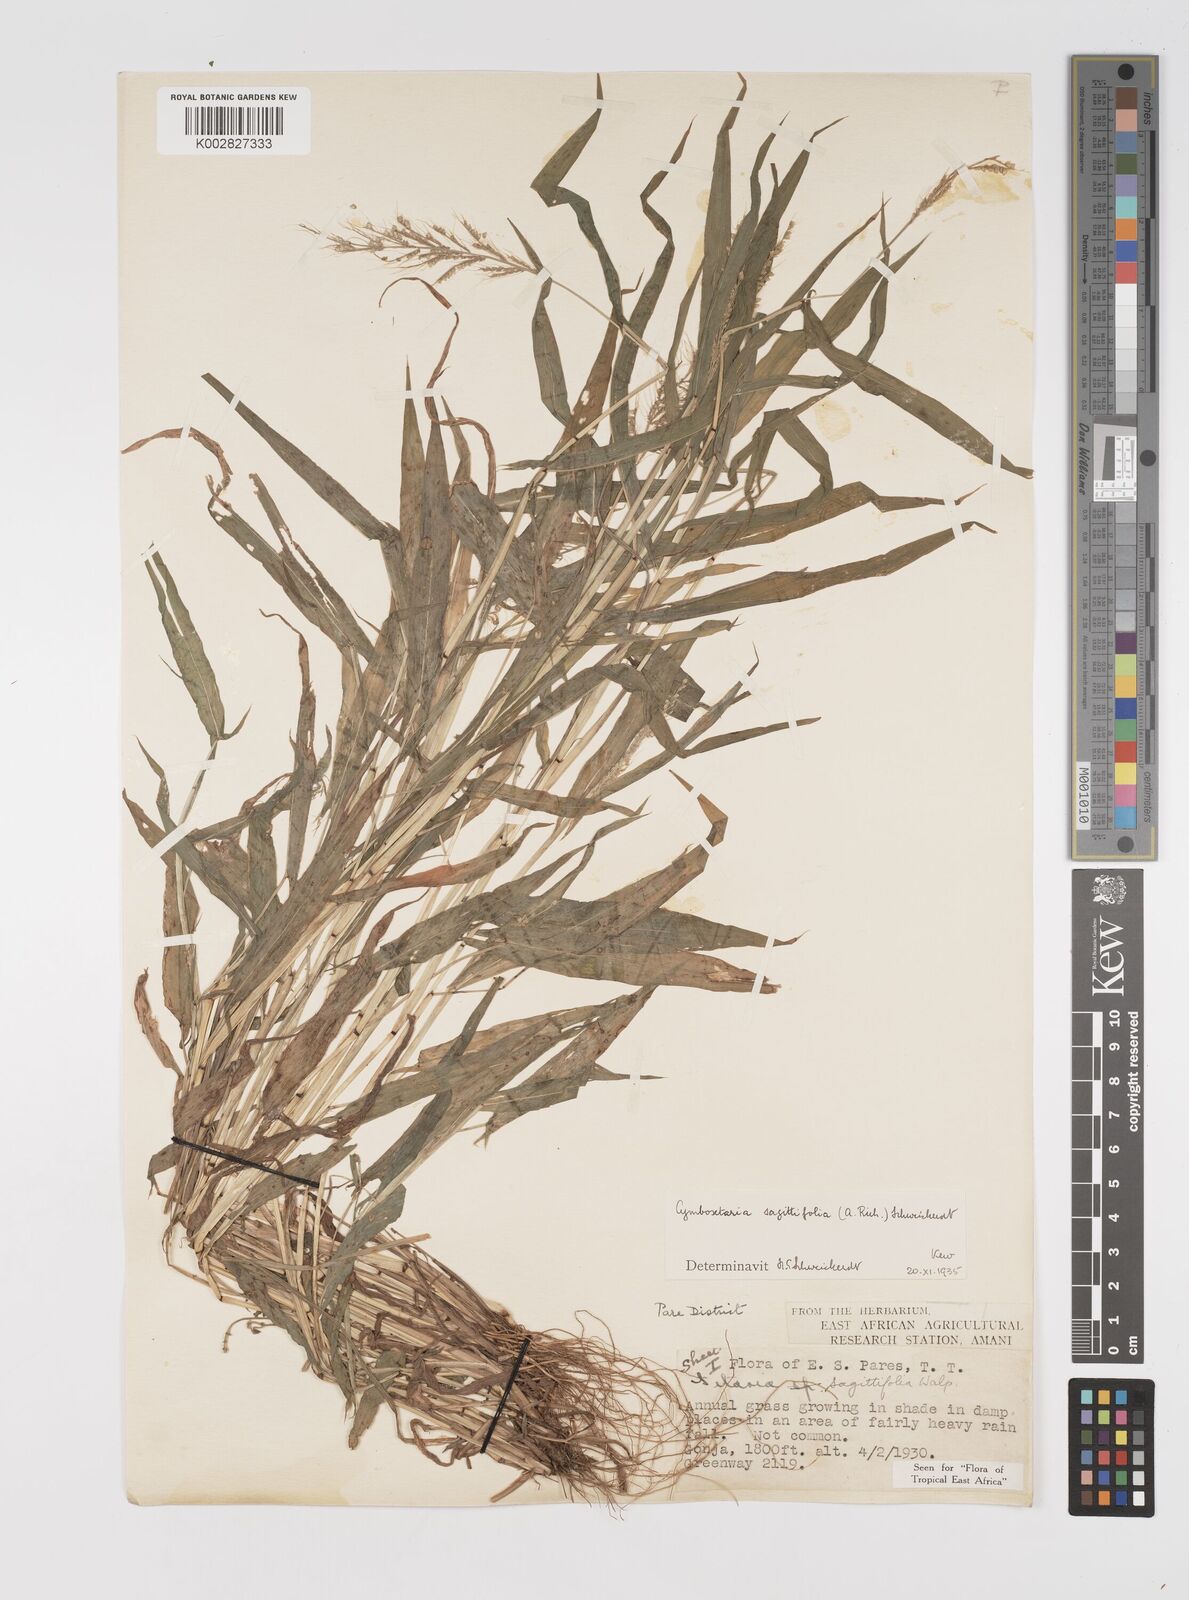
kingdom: Plantae
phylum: Tracheophyta
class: Liliopsida
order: Poales
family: Poaceae
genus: Setaria
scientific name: Setaria sagittifolia
